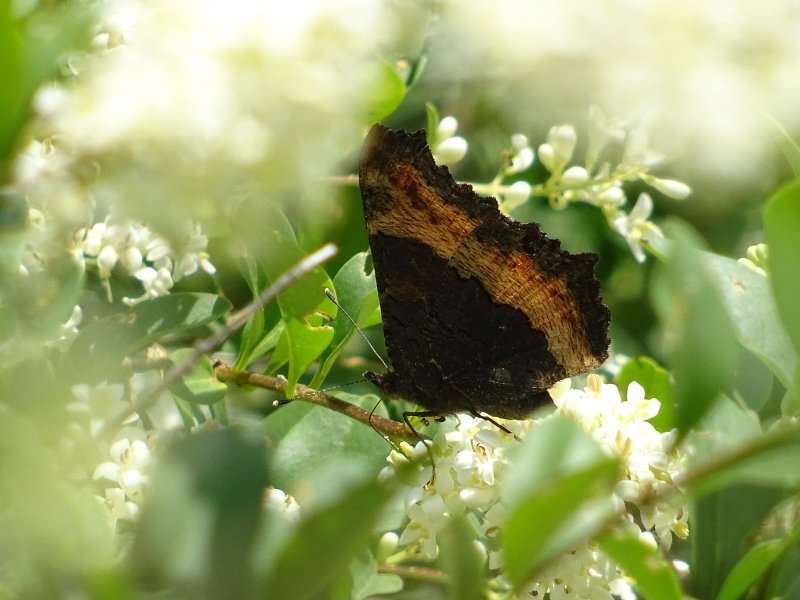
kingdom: Animalia
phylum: Arthropoda
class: Insecta
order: Lepidoptera
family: Nymphalidae
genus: Aglais
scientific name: Aglais milberti
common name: Milbert's Tortoiseshell
